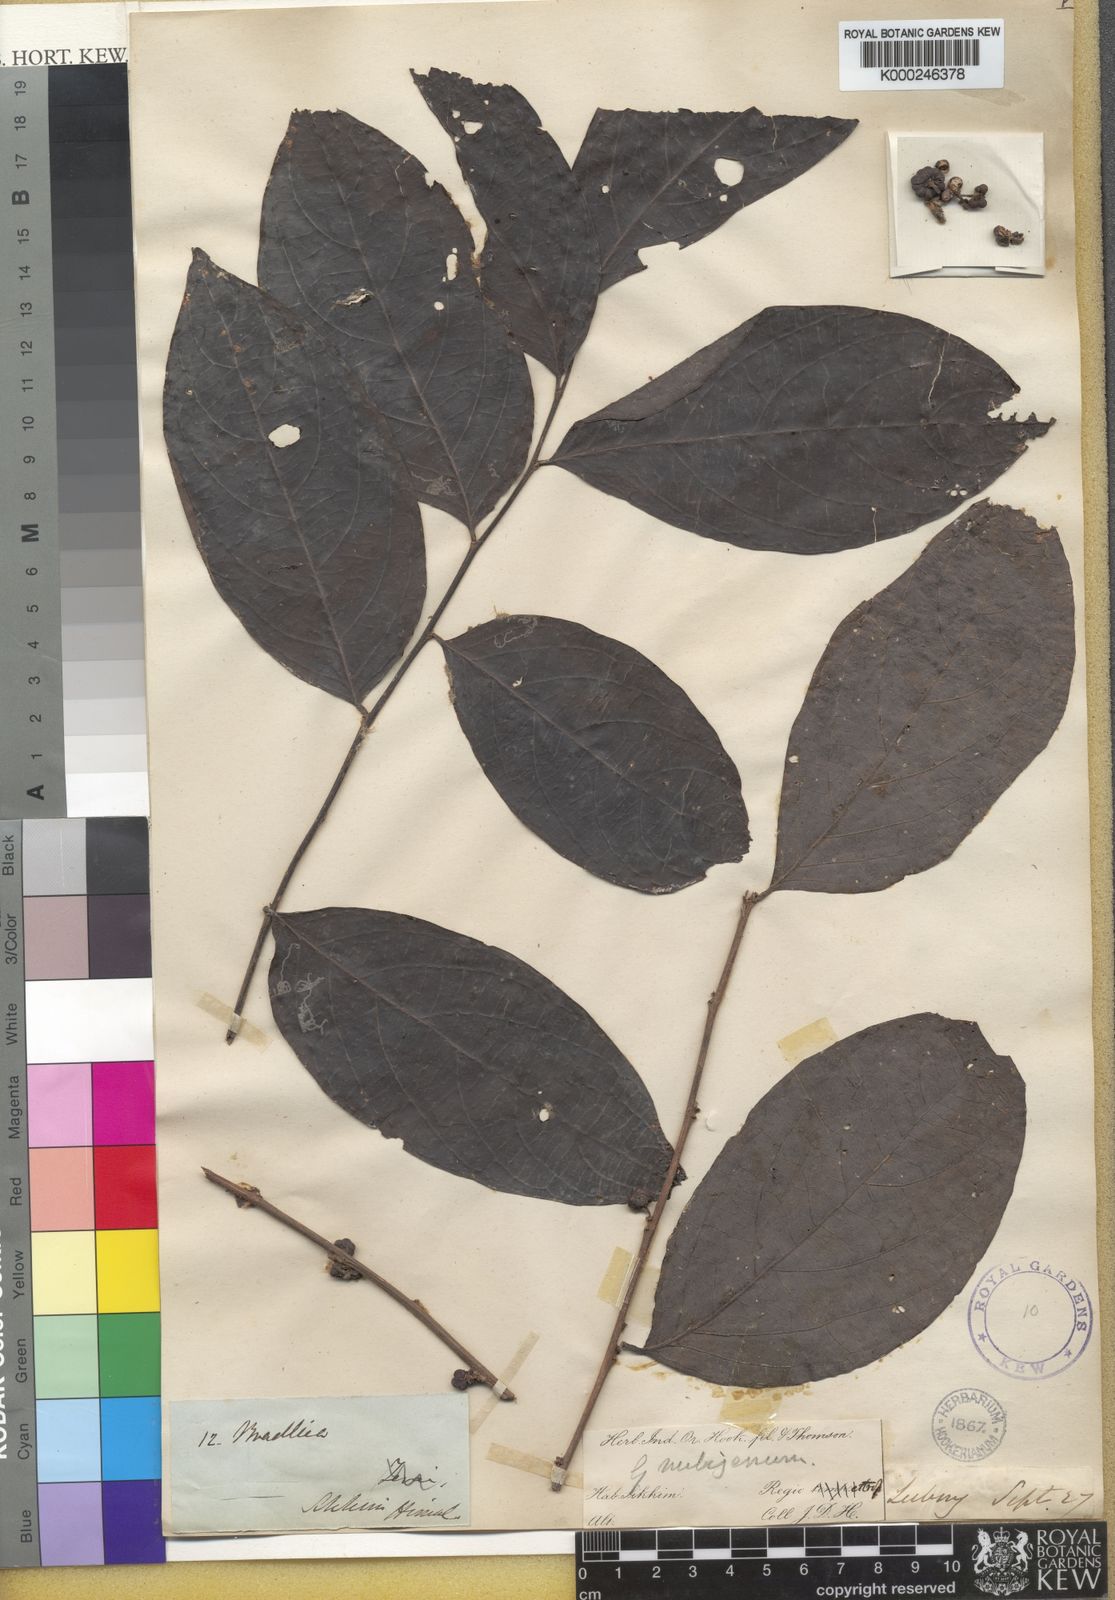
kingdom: Plantae
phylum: Tracheophyta
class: Magnoliopsida
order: Malpighiales
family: Phyllanthaceae
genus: Glochidion
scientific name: Glochidion nubigenum
